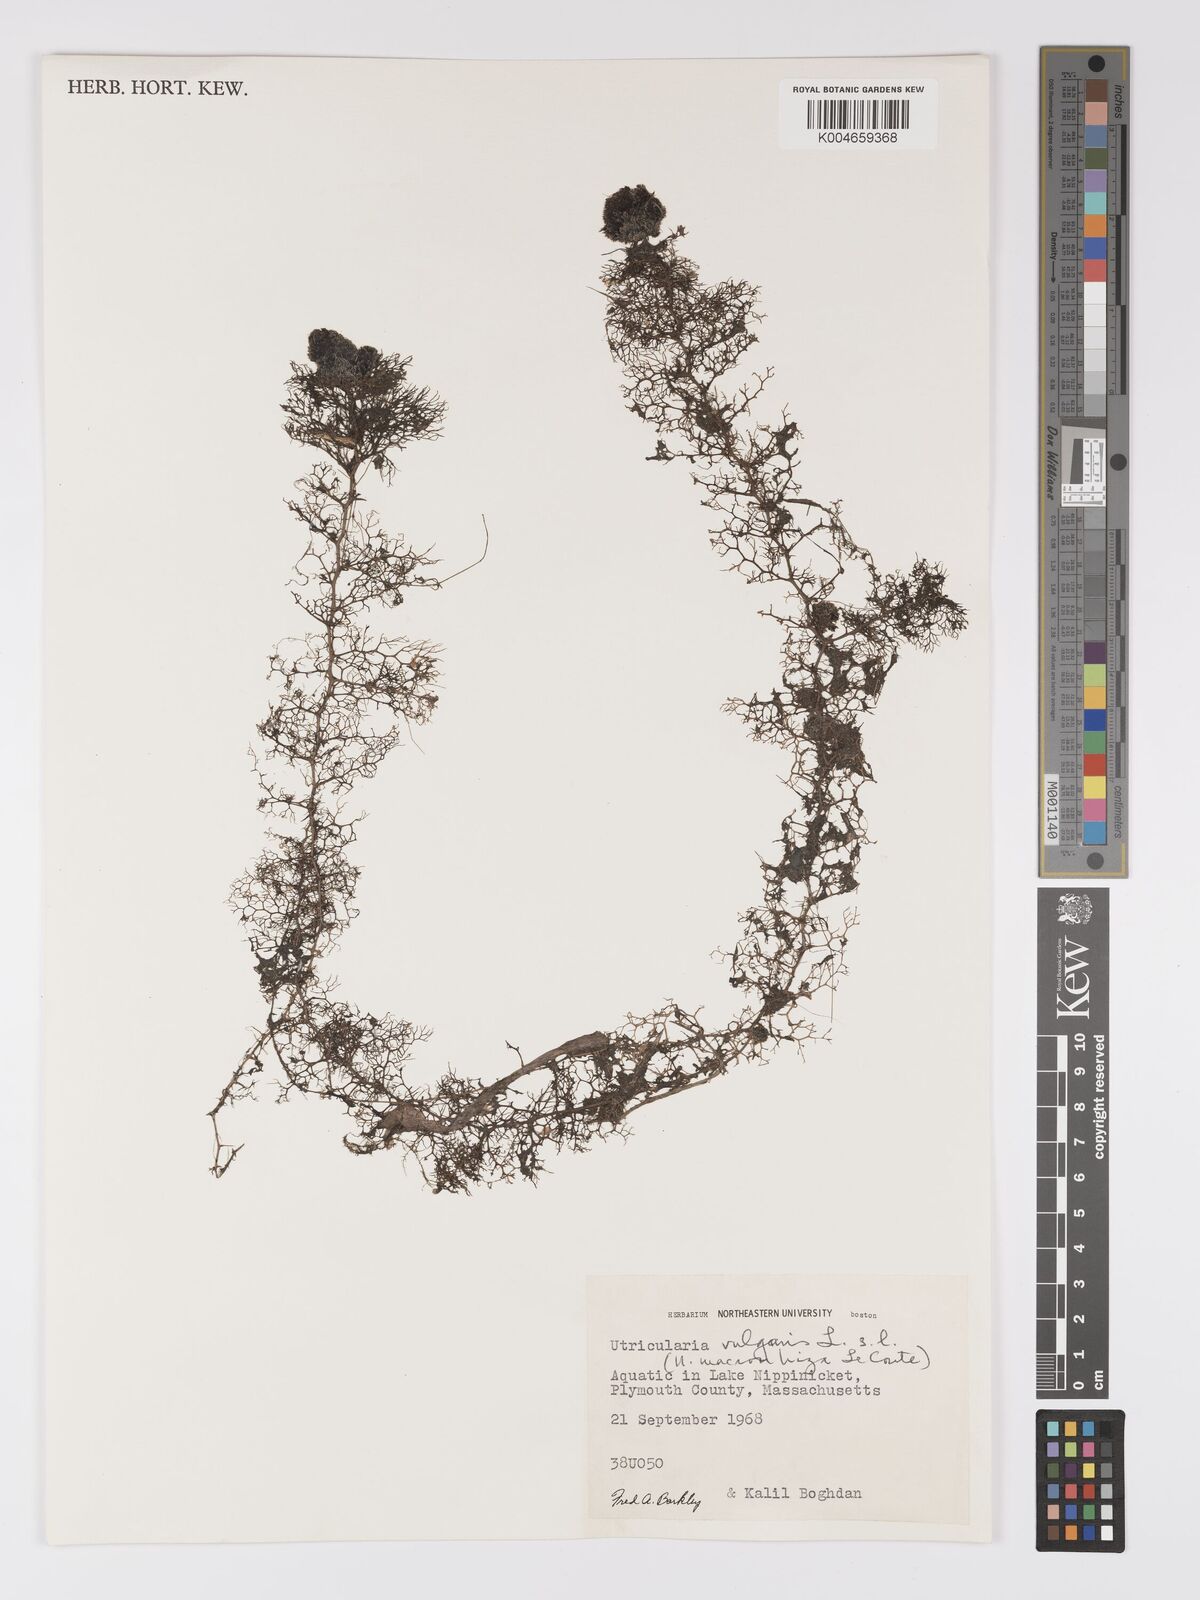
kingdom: Plantae
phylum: Tracheophyta
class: Magnoliopsida
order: Lamiales
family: Lentibulariaceae
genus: Utricularia
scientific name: Utricularia macrorhiza
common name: Common bladderwort
